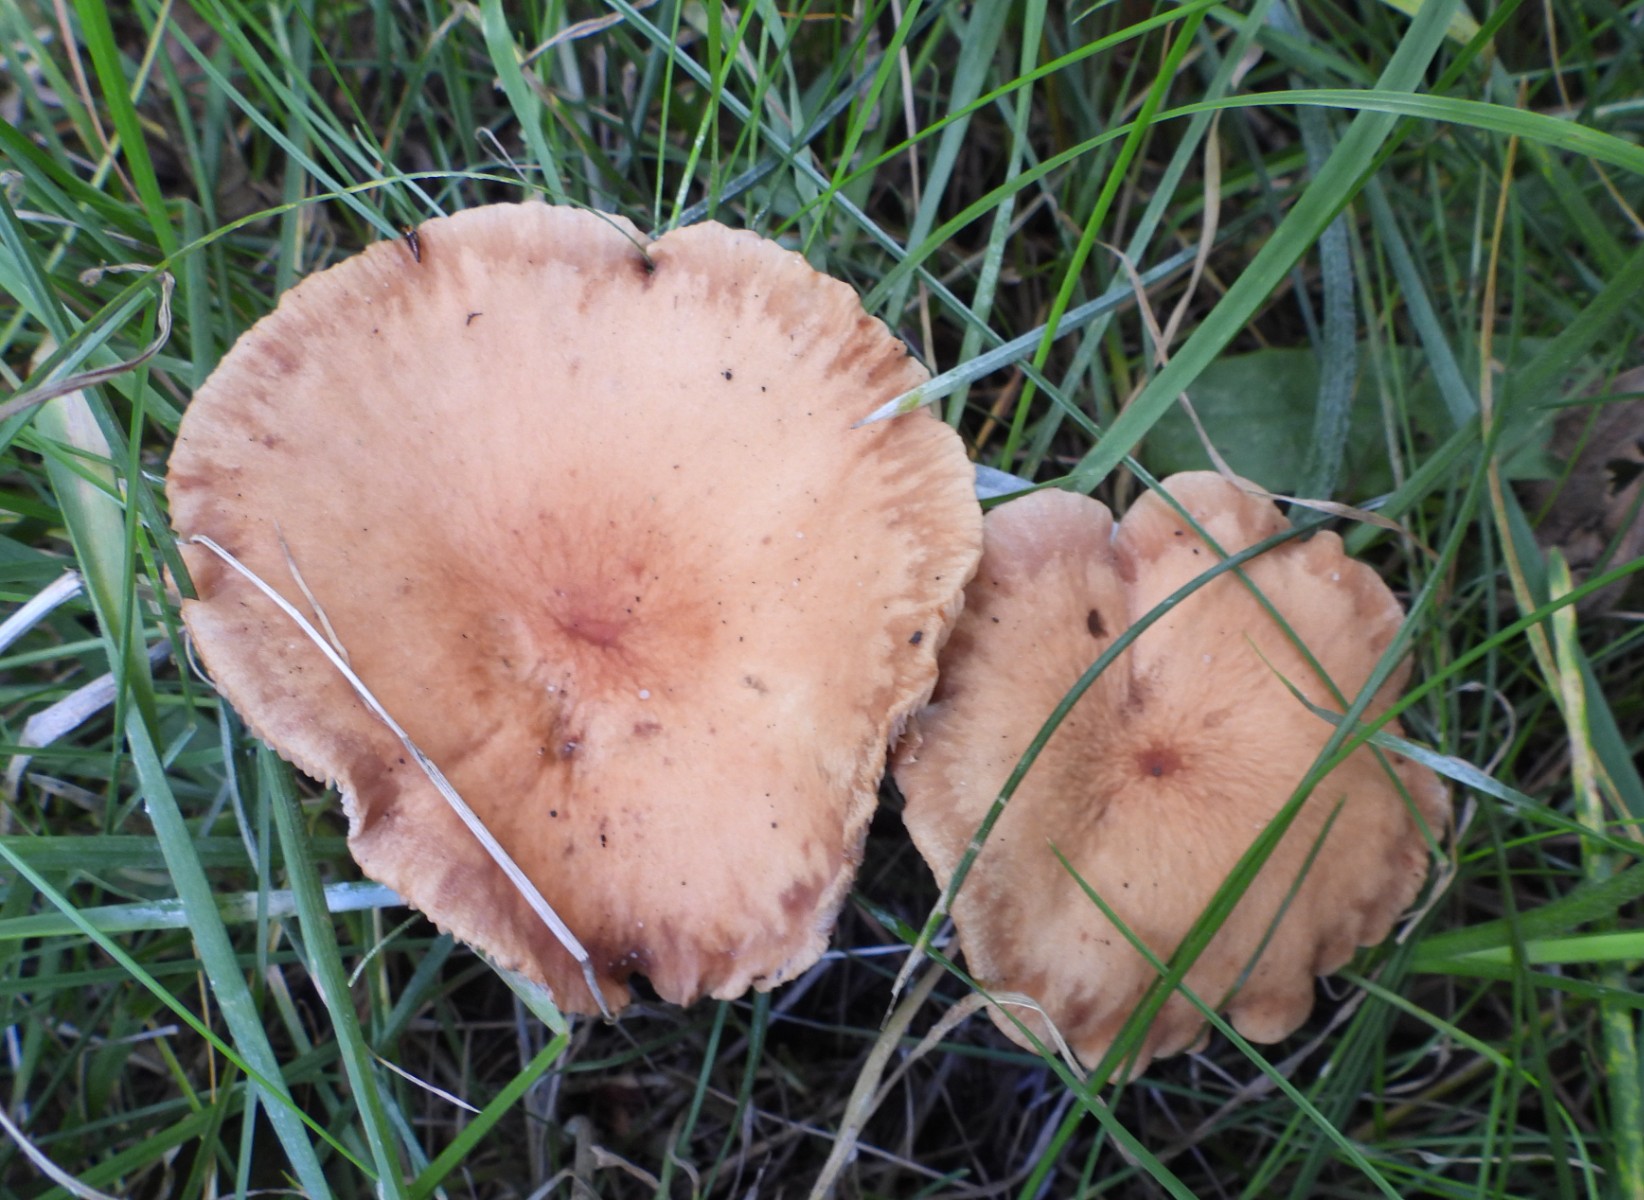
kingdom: Fungi
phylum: Basidiomycota
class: Agaricomycetes
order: Russulales
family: Russulaceae
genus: Lactarius
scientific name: Lactarius tabidus
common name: rynket mælkehat
